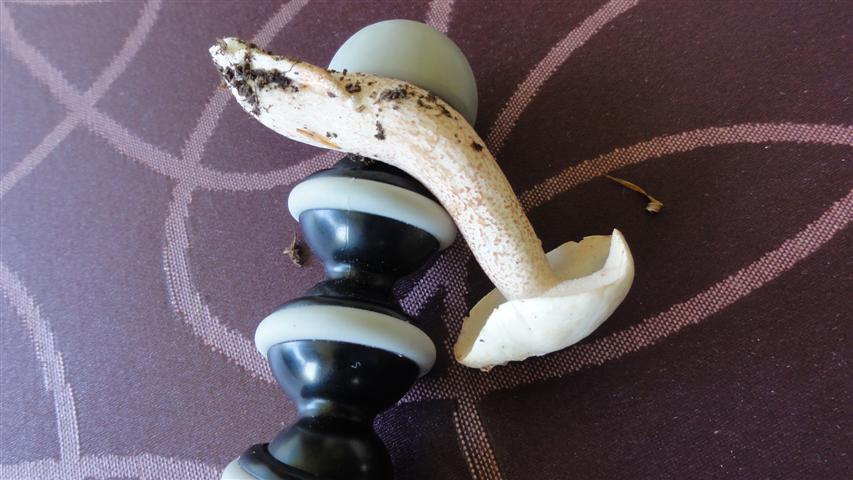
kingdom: Fungi
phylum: Basidiomycota
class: Agaricomycetes
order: Boletales
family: Suillaceae
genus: Suillus
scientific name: Suillus placidus
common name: elfenbens-slimrørhat
